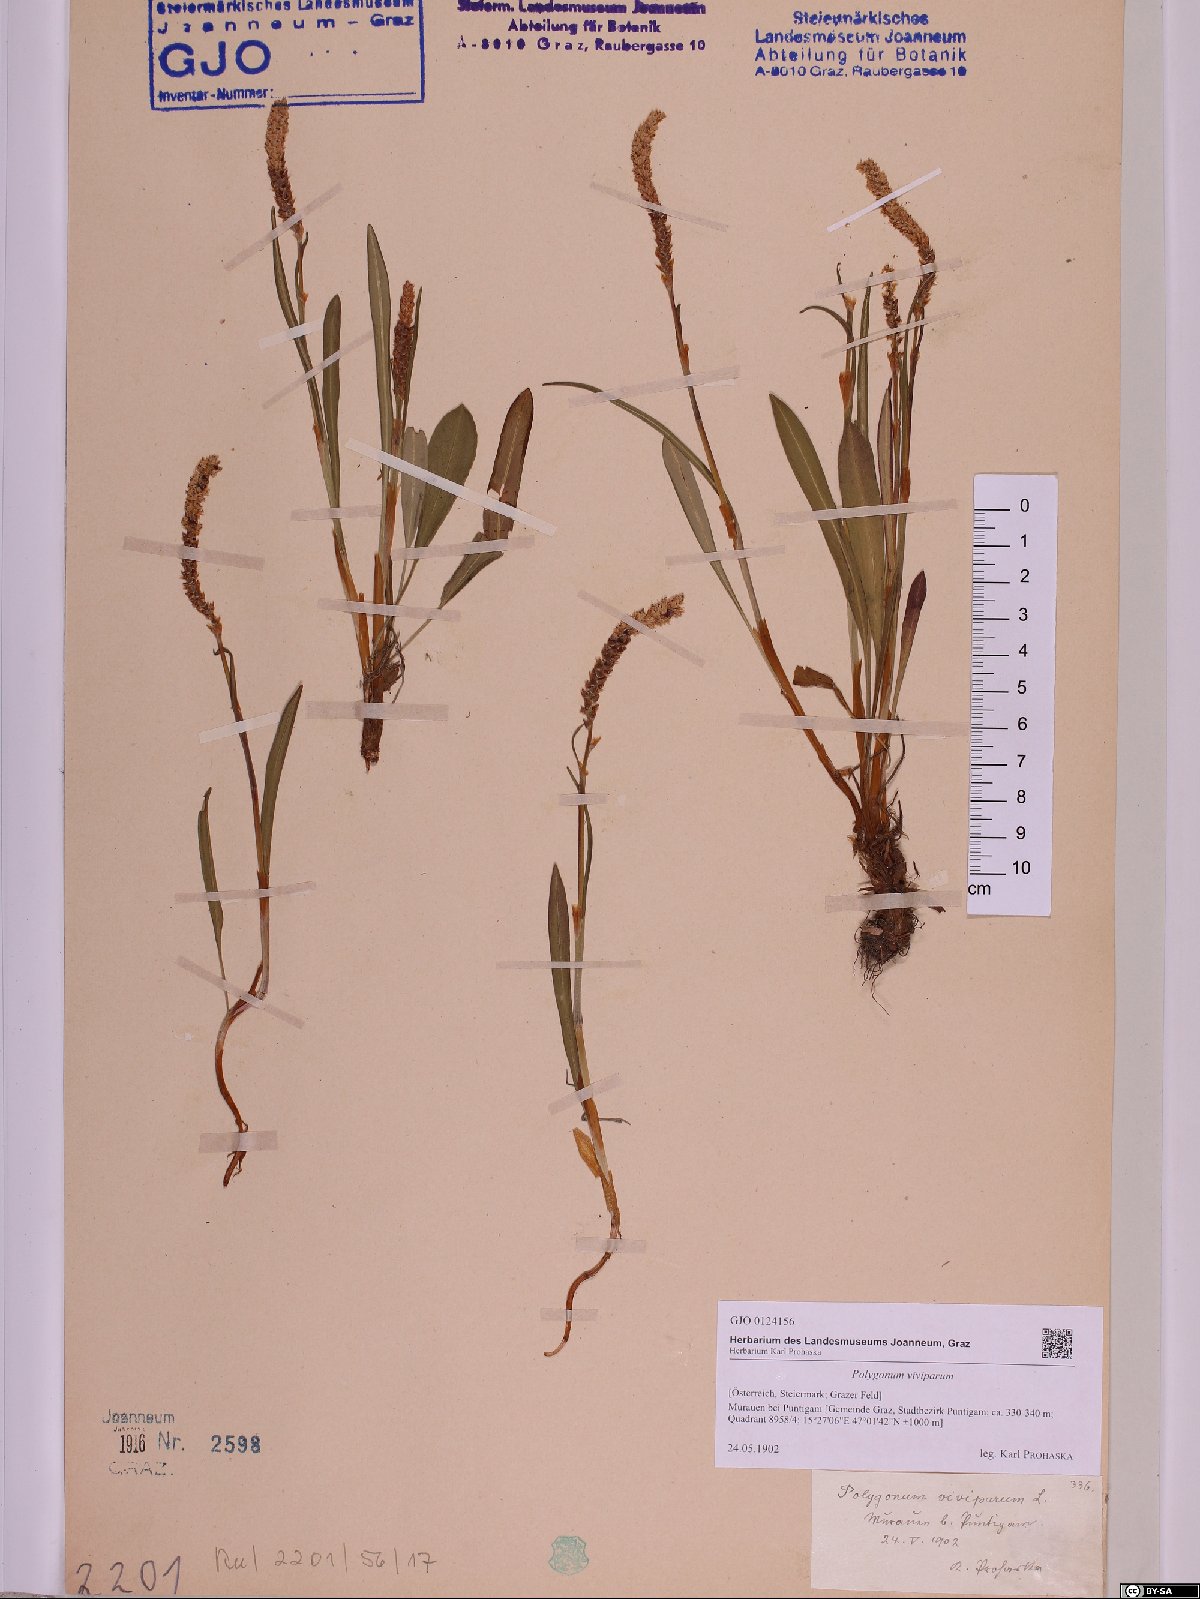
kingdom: Plantae
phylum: Tracheophyta
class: Magnoliopsida
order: Caryophyllales
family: Polygonaceae
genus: Bistorta
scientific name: Bistorta vivipara
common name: Alpine bistort
